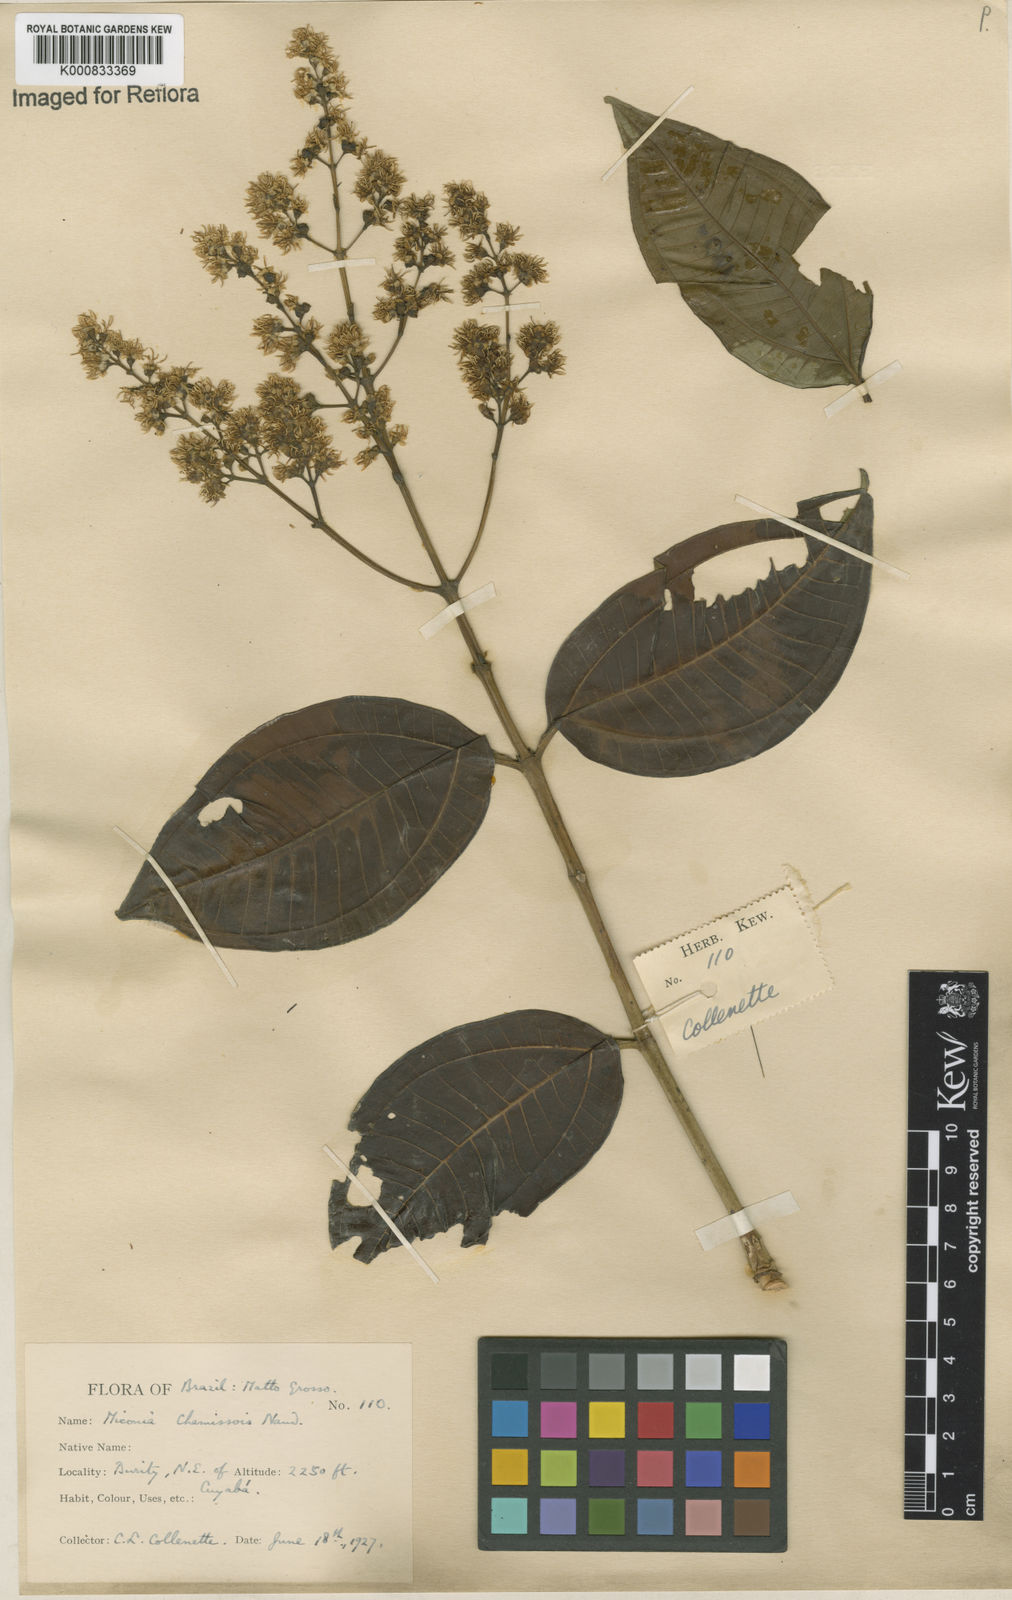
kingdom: Plantae
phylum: Tracheophyta
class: Magnoliopsida
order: Myrtales
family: Melastomataceae
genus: Miconia
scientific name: Miconia chamissois
